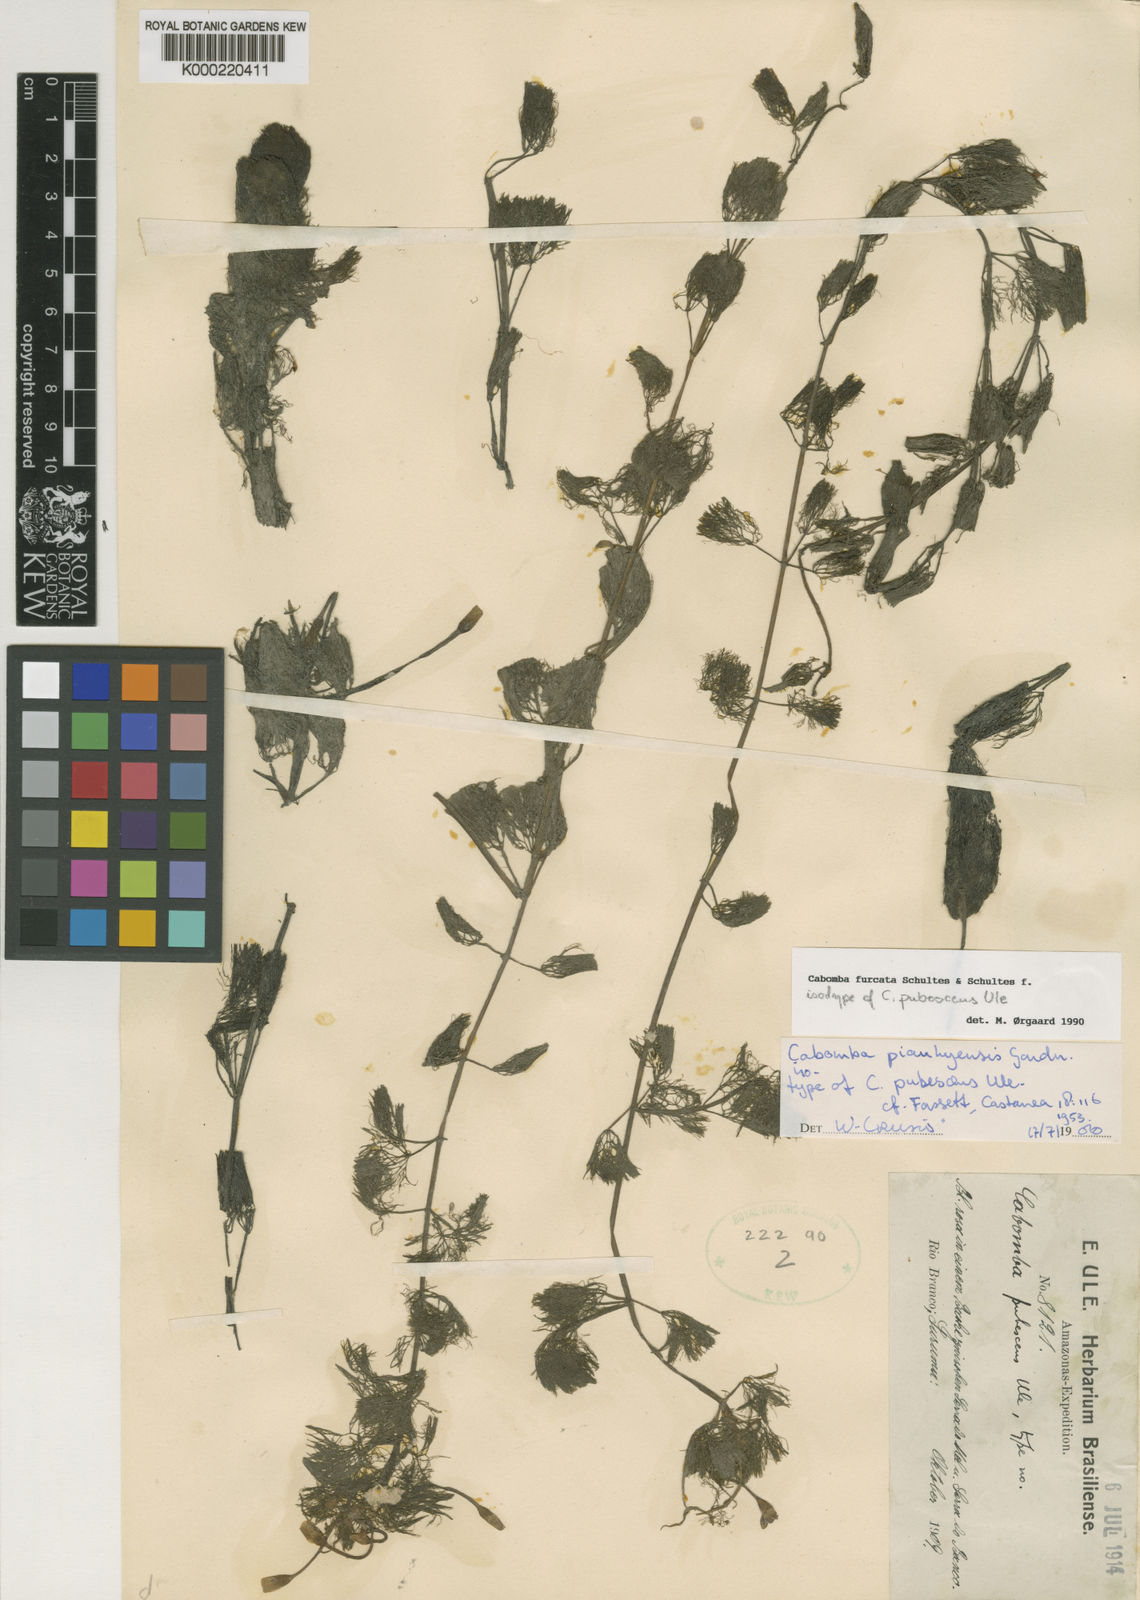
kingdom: Plantae
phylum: Tracheophyta
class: Magnoliopsida
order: Nymphaeales
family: Cabombaceae
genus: Cabomba
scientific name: Cabomba furcata
